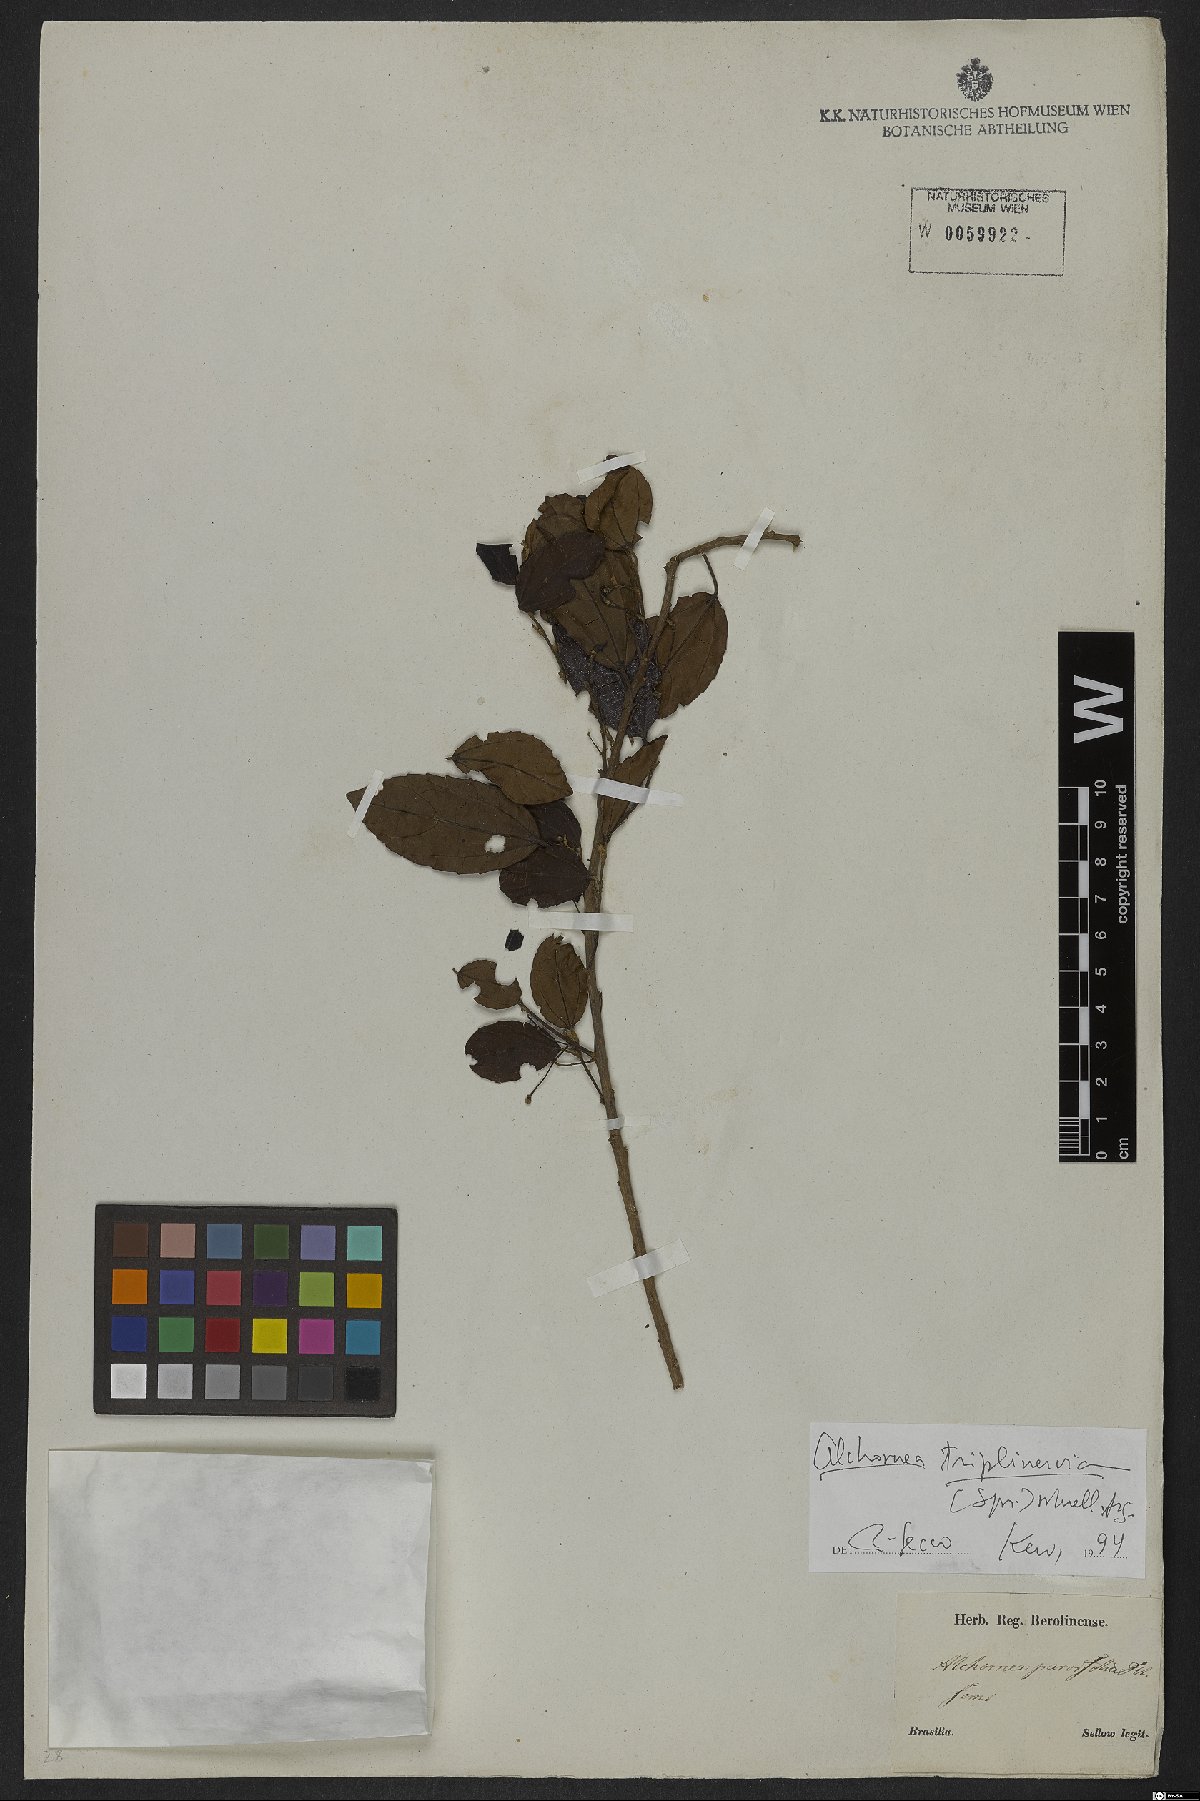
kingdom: Plantae
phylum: Tracheophyta
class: Magnoliopsida
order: Malpighiales
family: Euphorbiaceae
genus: Alchornea
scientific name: Alchornea triplinervia
